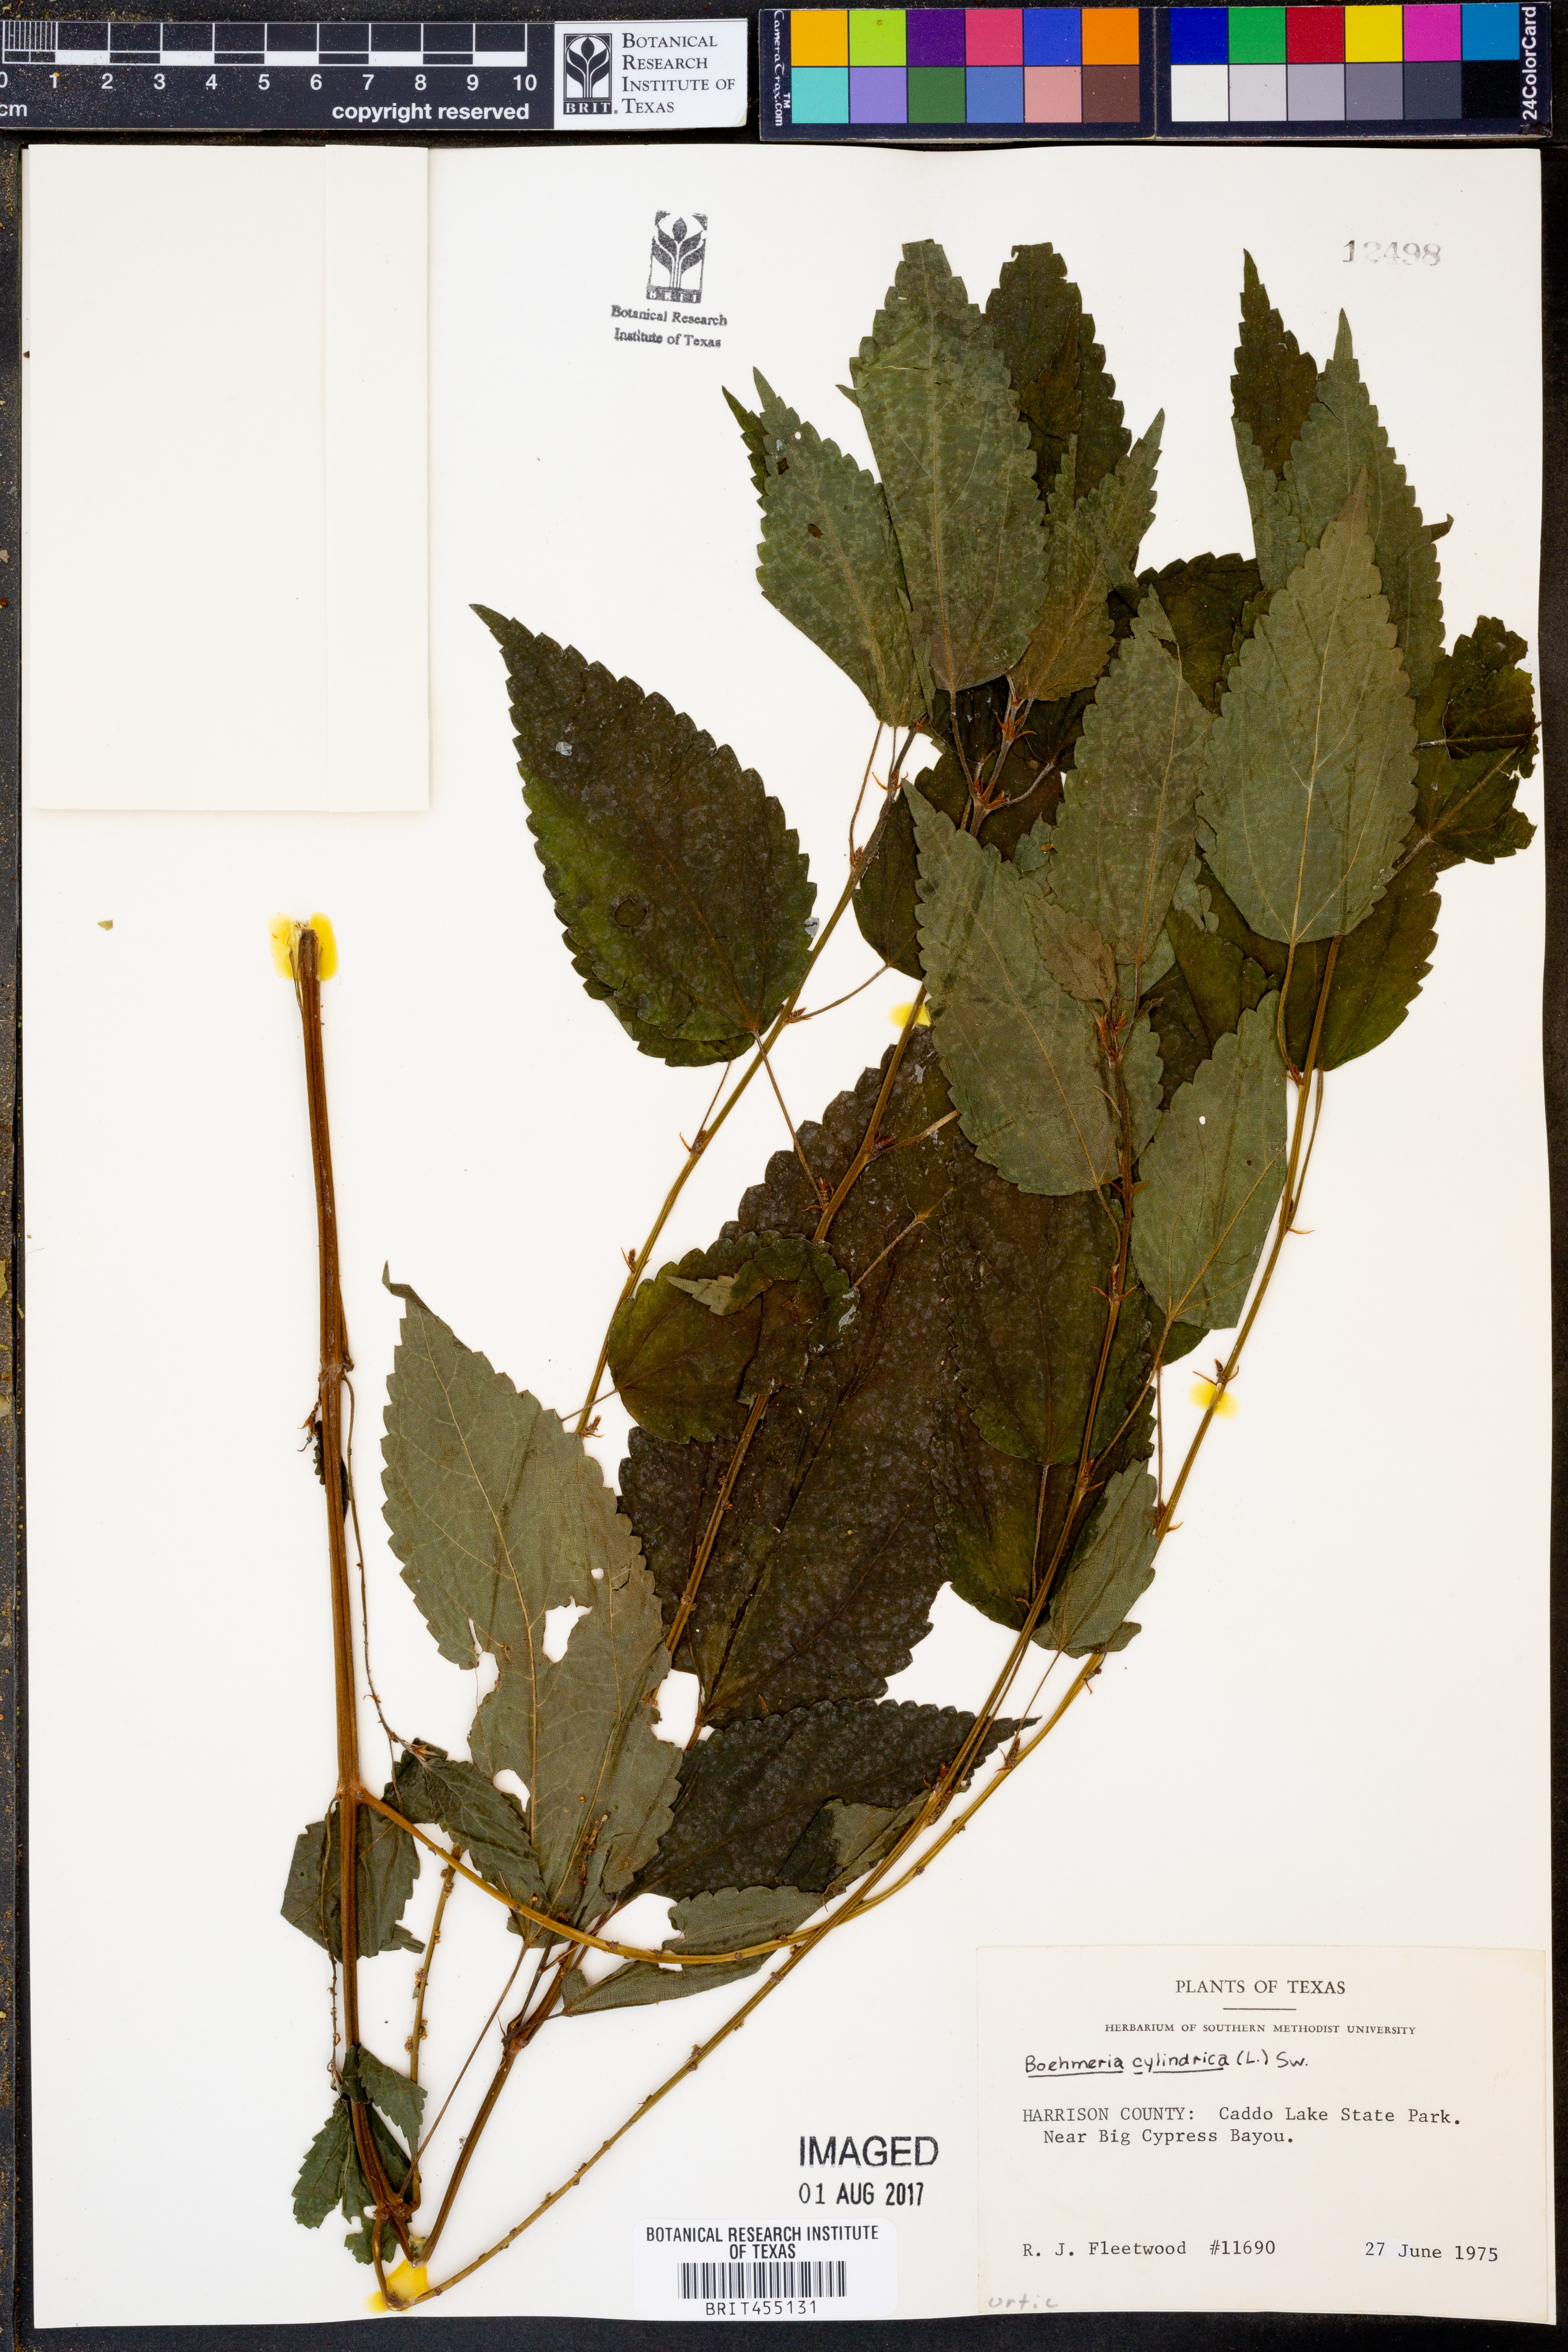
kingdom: Plantae
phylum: Tracheophyta
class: Magnoliopsida
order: Rosales
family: Urticaceae
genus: Boehmeria
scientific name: Boehmeria cylindrica
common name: Bog-hemp
